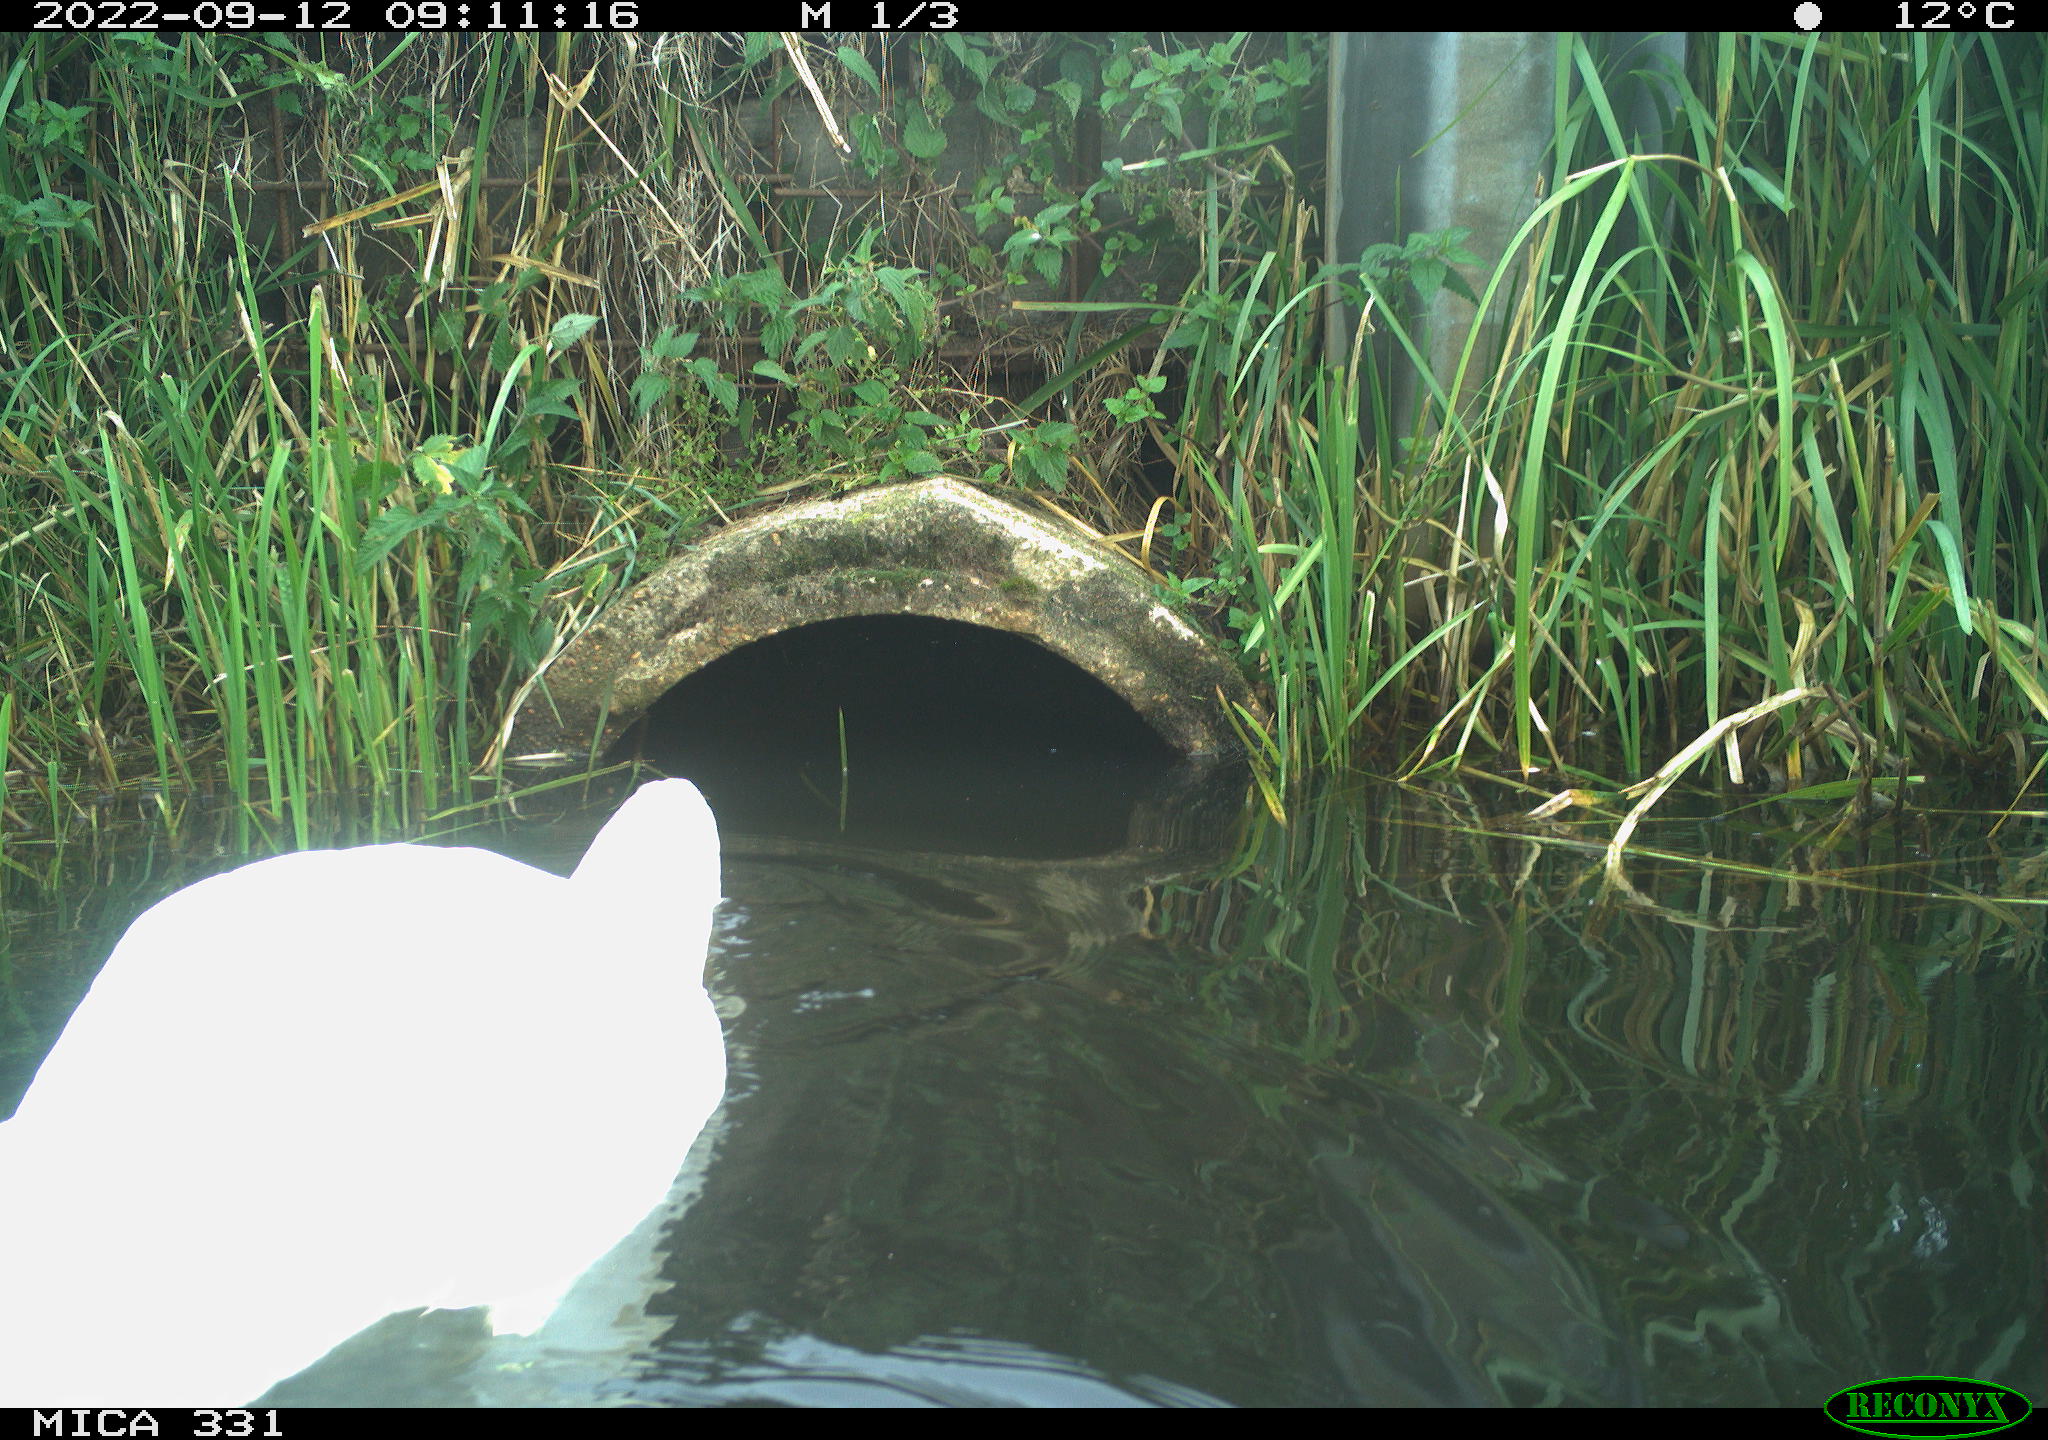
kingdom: Animalia
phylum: Chordata
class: Aves
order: Anseriformes
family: Anatidae
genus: Cygnus
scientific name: Cygnus olor
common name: Mute swan
